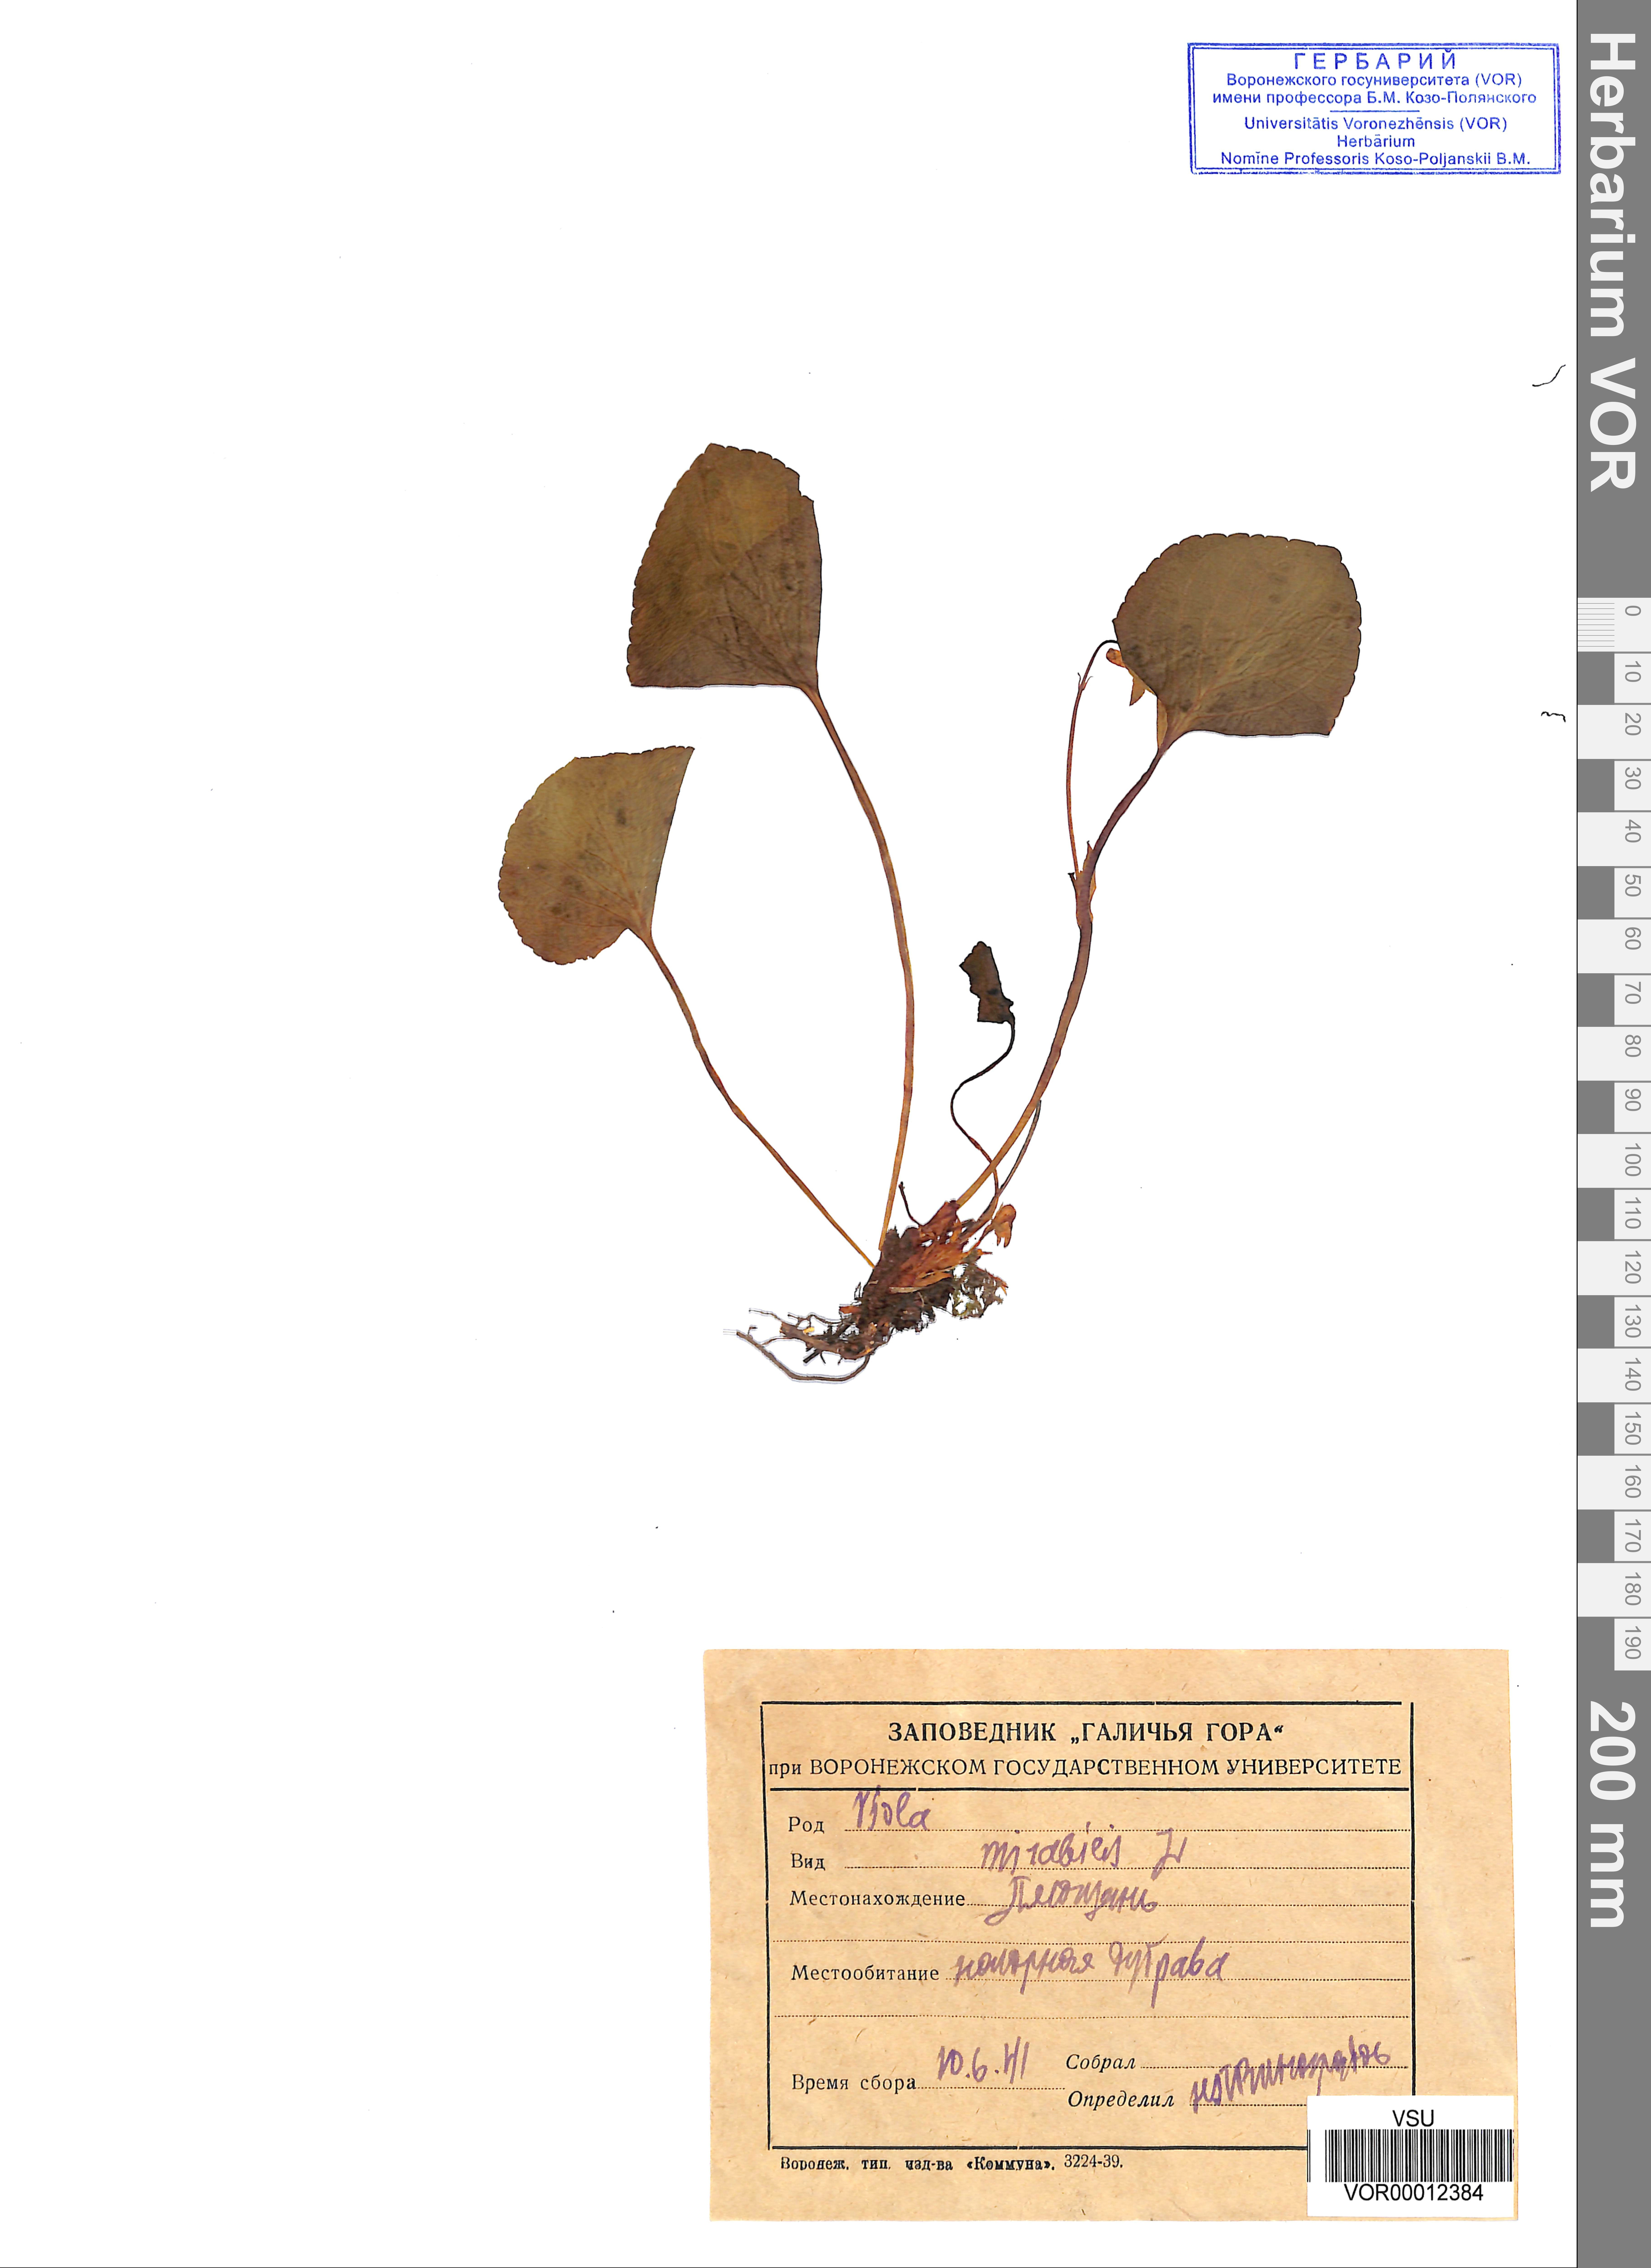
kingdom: Plantae
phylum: Tracheophyta
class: Magnoliopsida
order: Malpighiales
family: Violaceae
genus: Viola
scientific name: Viola mirabilis
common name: Wonder violet
